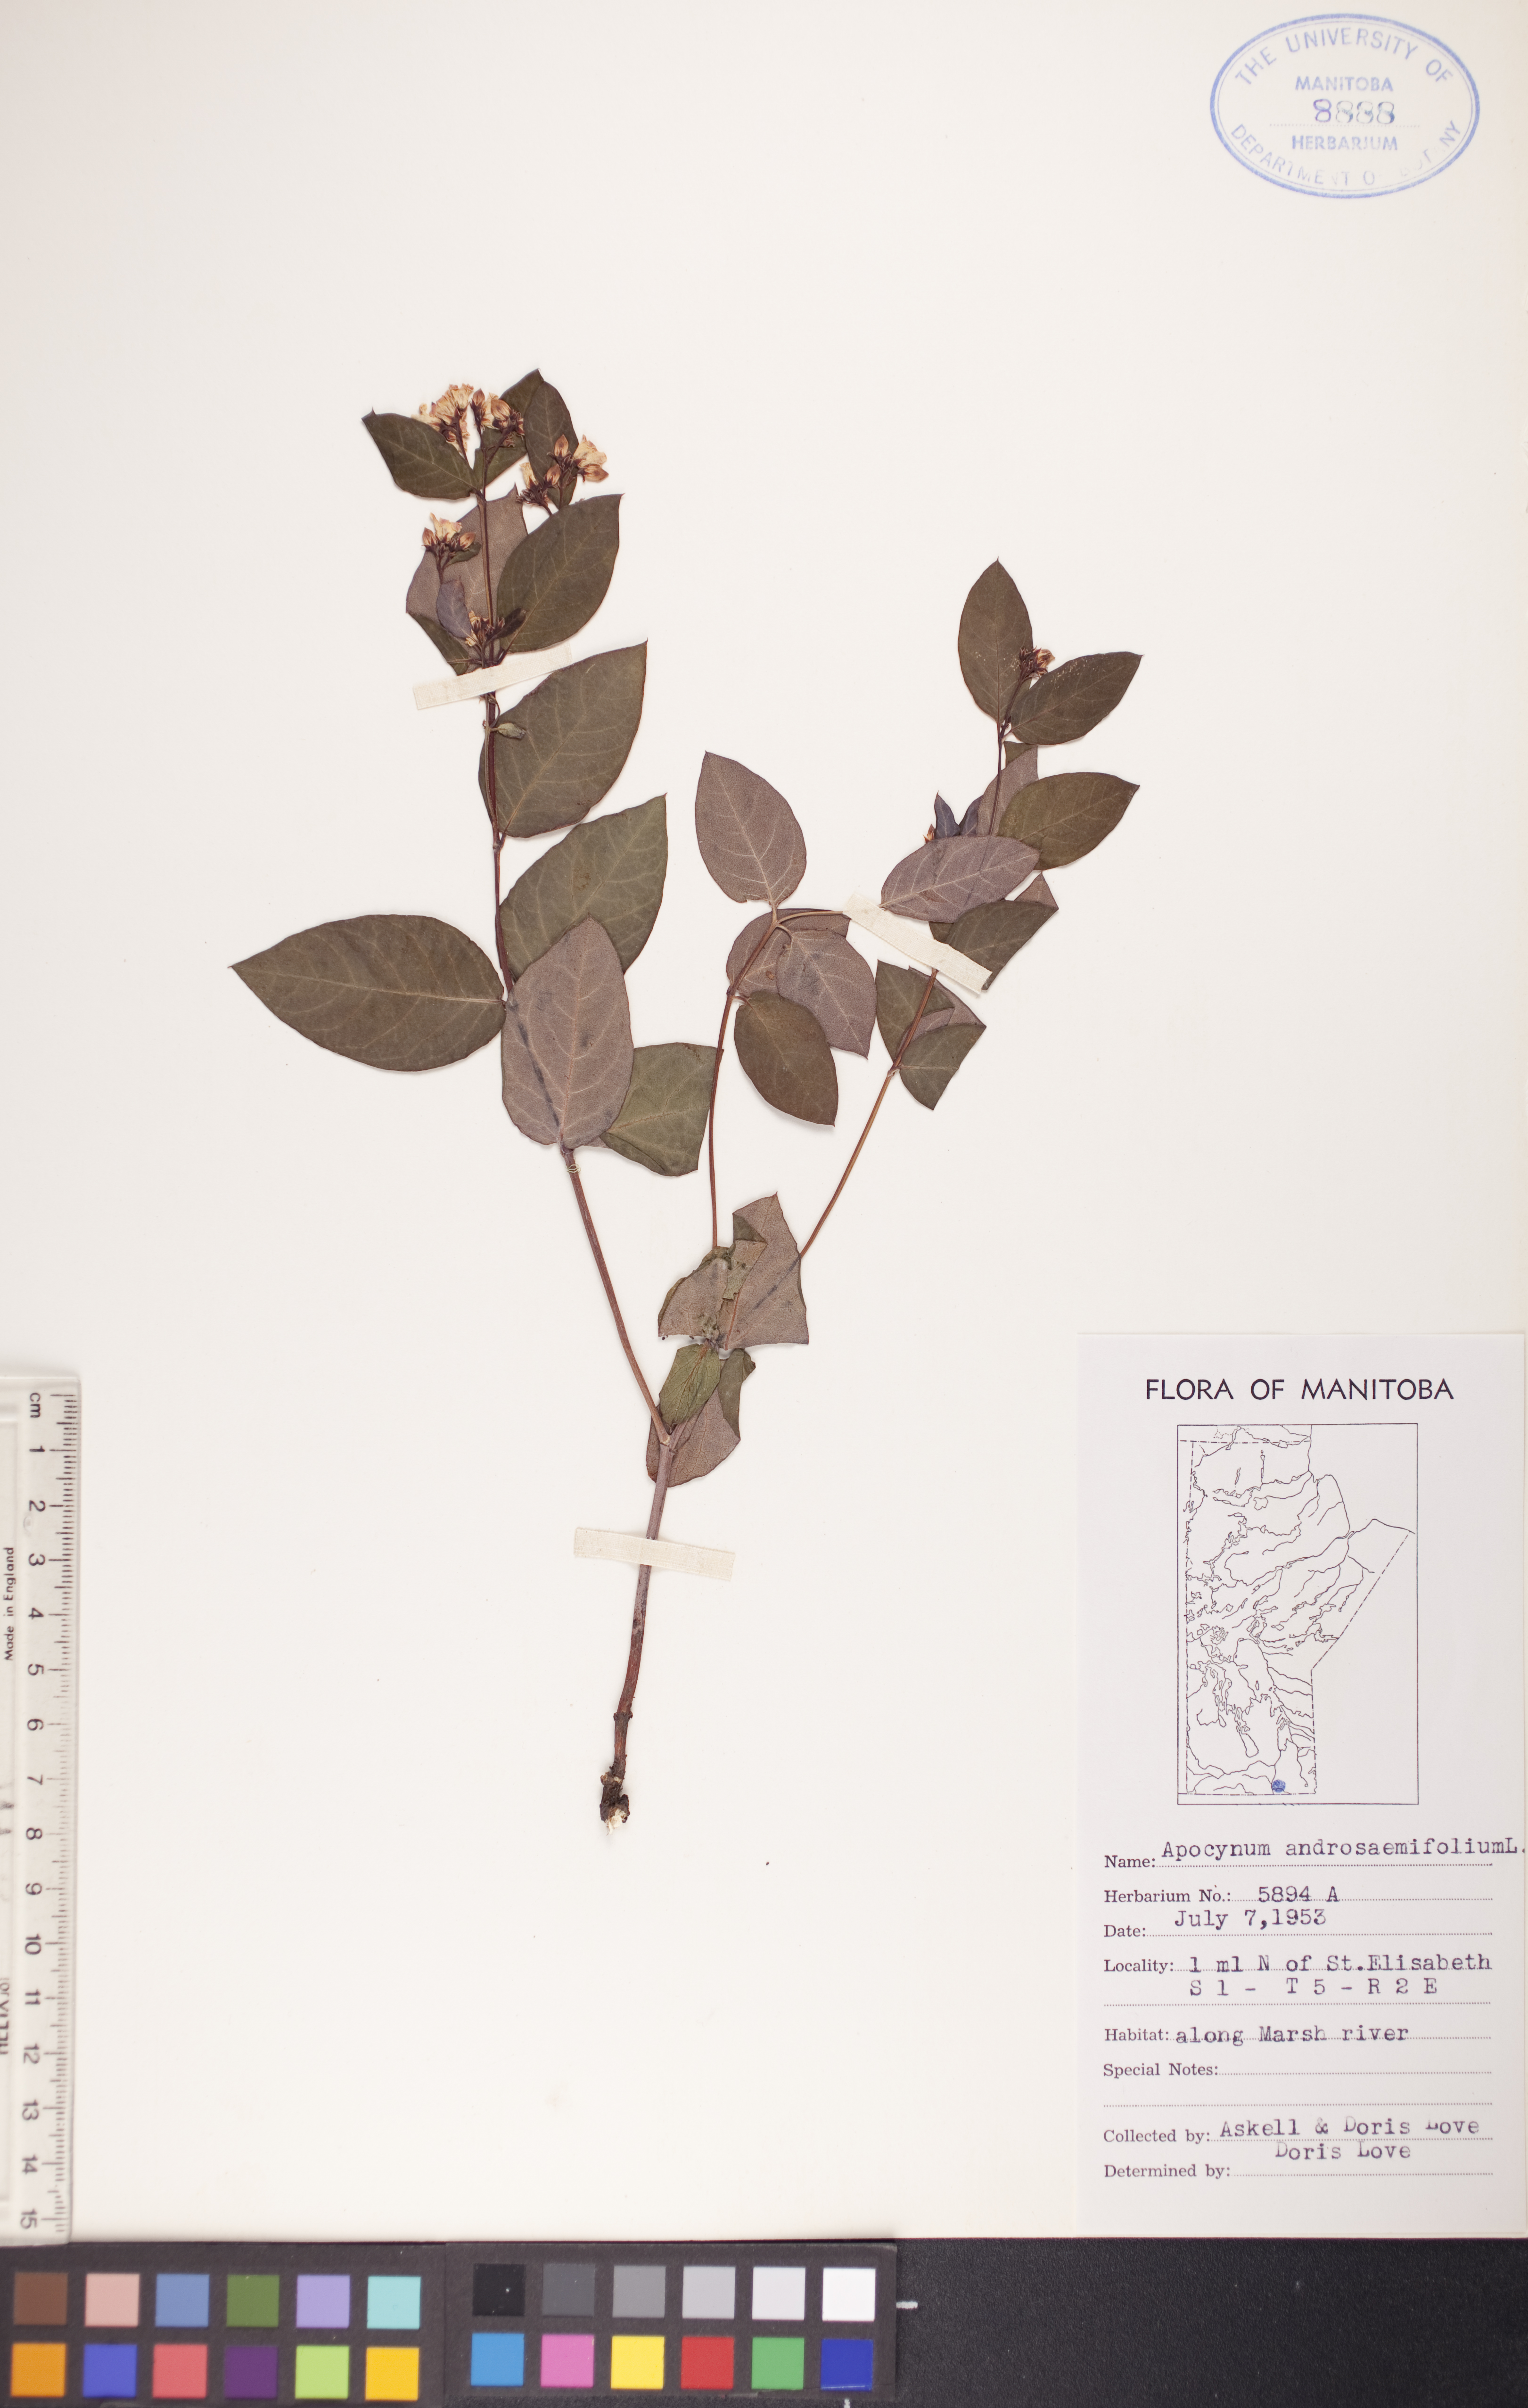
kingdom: Plantae
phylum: Tracheophyta
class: Magnoliopsida
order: Gentianales
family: Apocynaceae
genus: Apocynum
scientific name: Apocynum androsaemifolium
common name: Spreading dogbane
